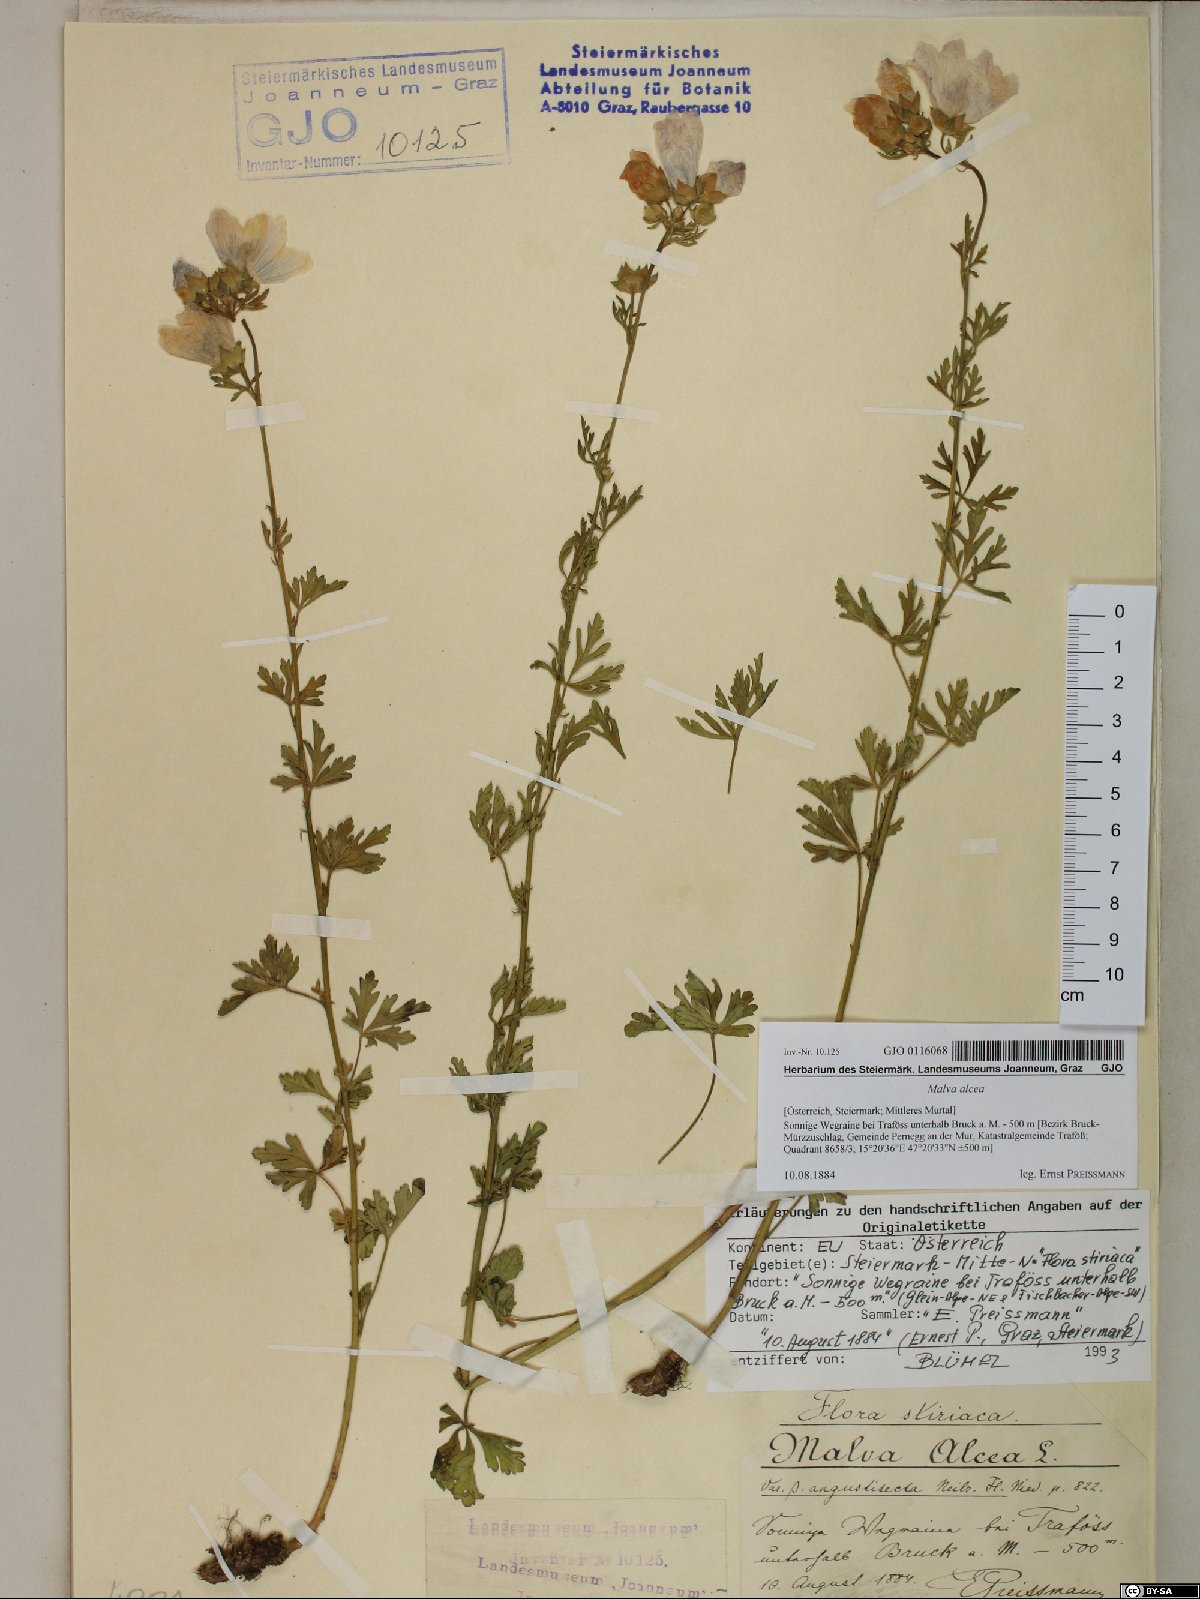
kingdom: Plantae
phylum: Tracheophyta
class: Magnoliopsida
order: Malvales
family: Malvaceae
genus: Malva
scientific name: Malva alcea
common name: Greater musk-mallow
